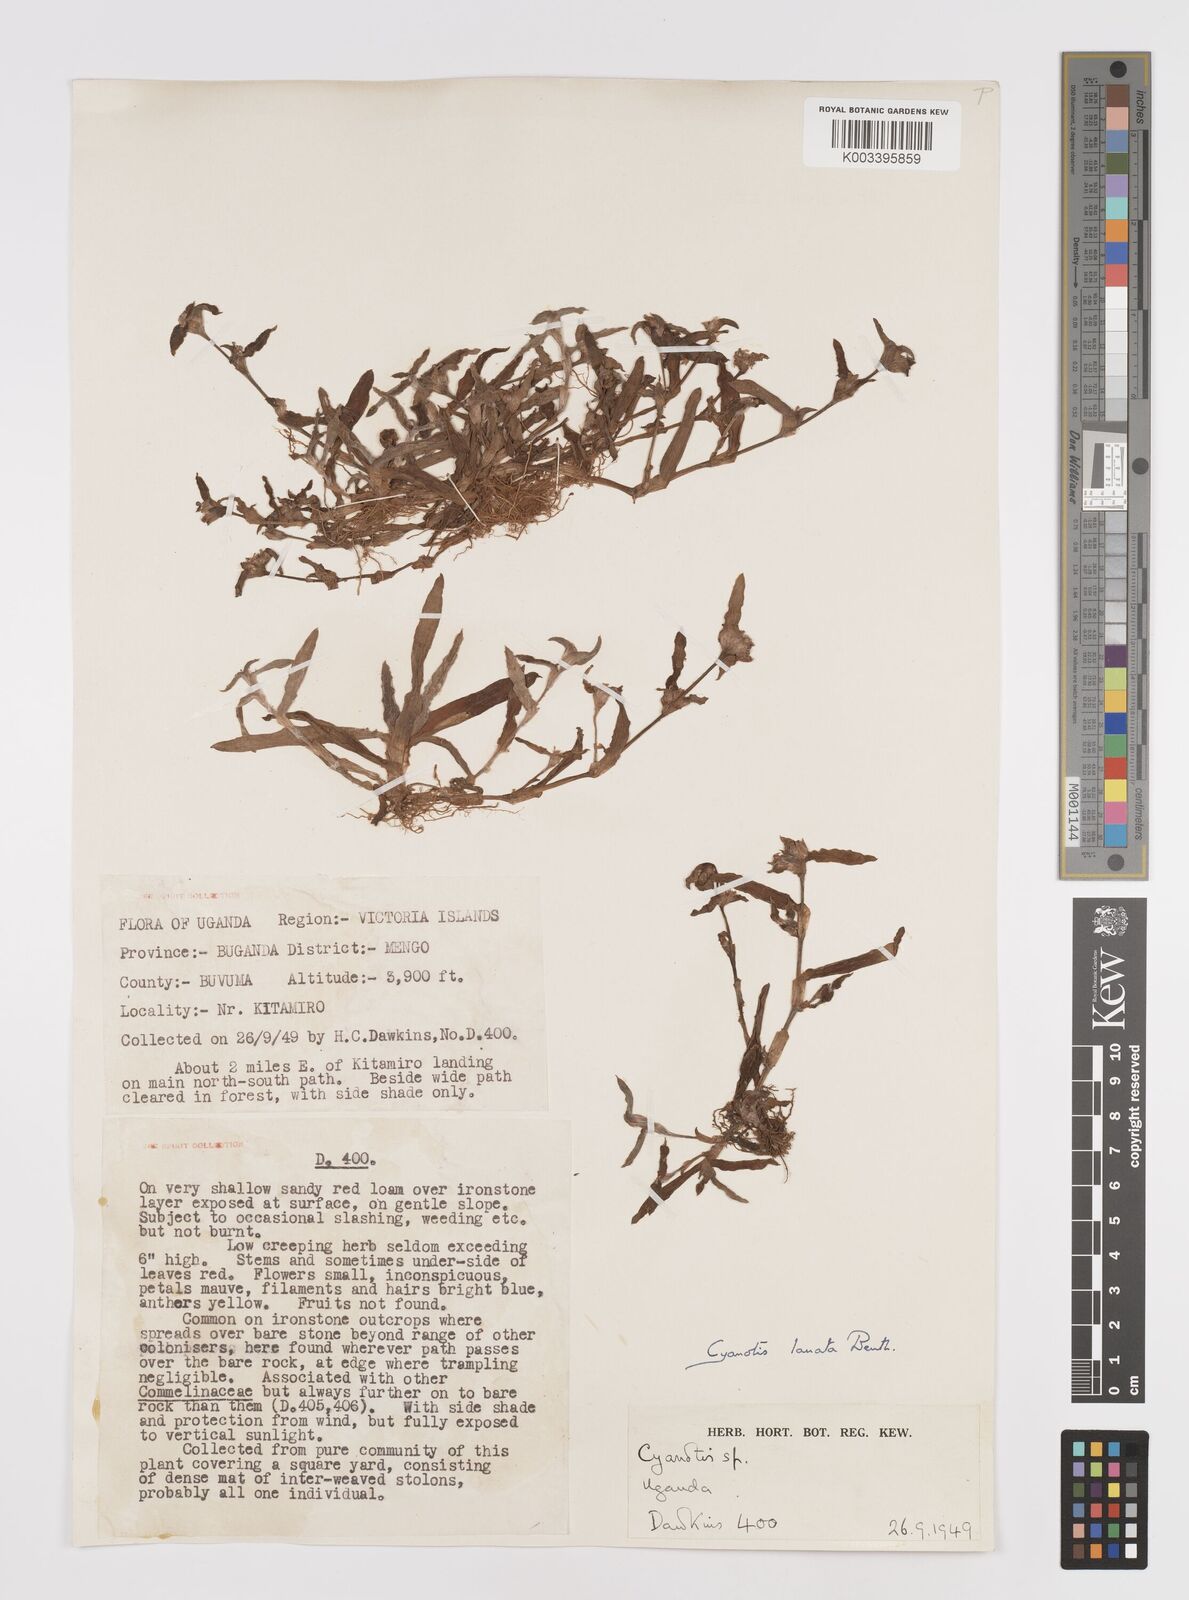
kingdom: Plantae
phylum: Tracheophyta
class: Liliopsida
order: Commelinales
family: Commelinaceae
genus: Cyanotis
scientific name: Cyanotis lanata
